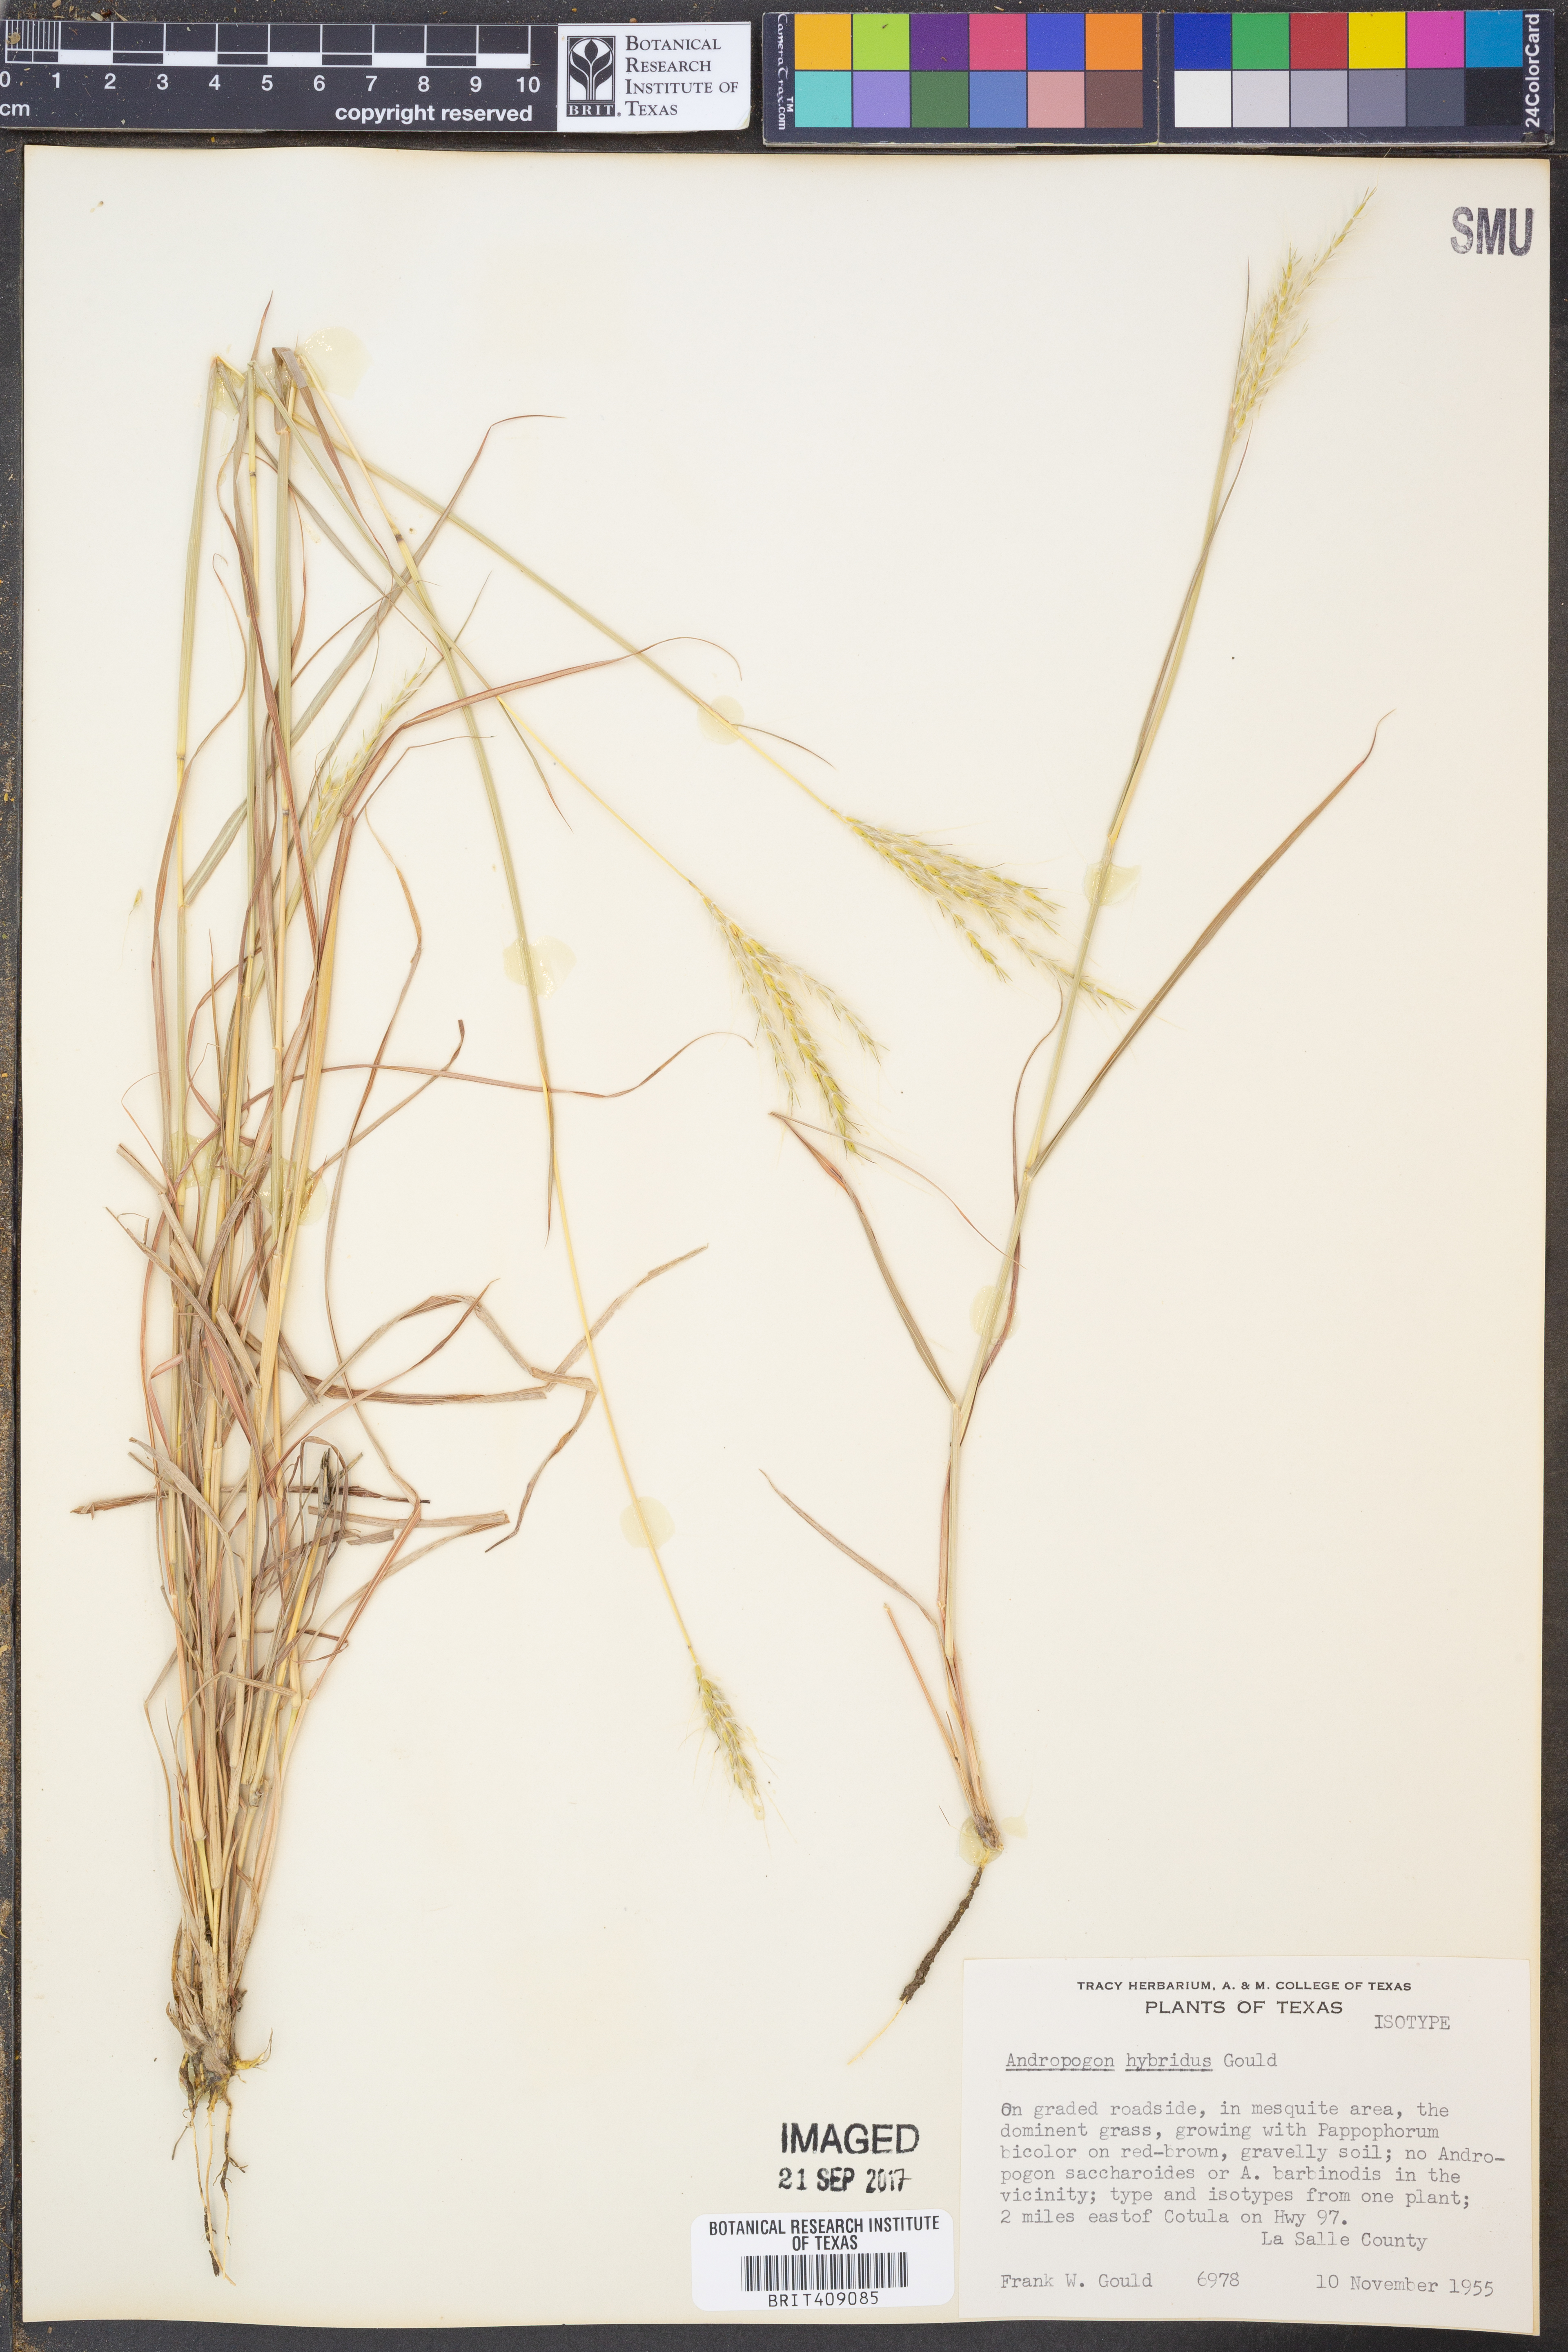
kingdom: Plantae
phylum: Tracheophyta
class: Liliopsida
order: Poales
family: Poaceae
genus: Bothriochloa
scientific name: Bothriochloa hybrida
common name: Hybrid bluestem
